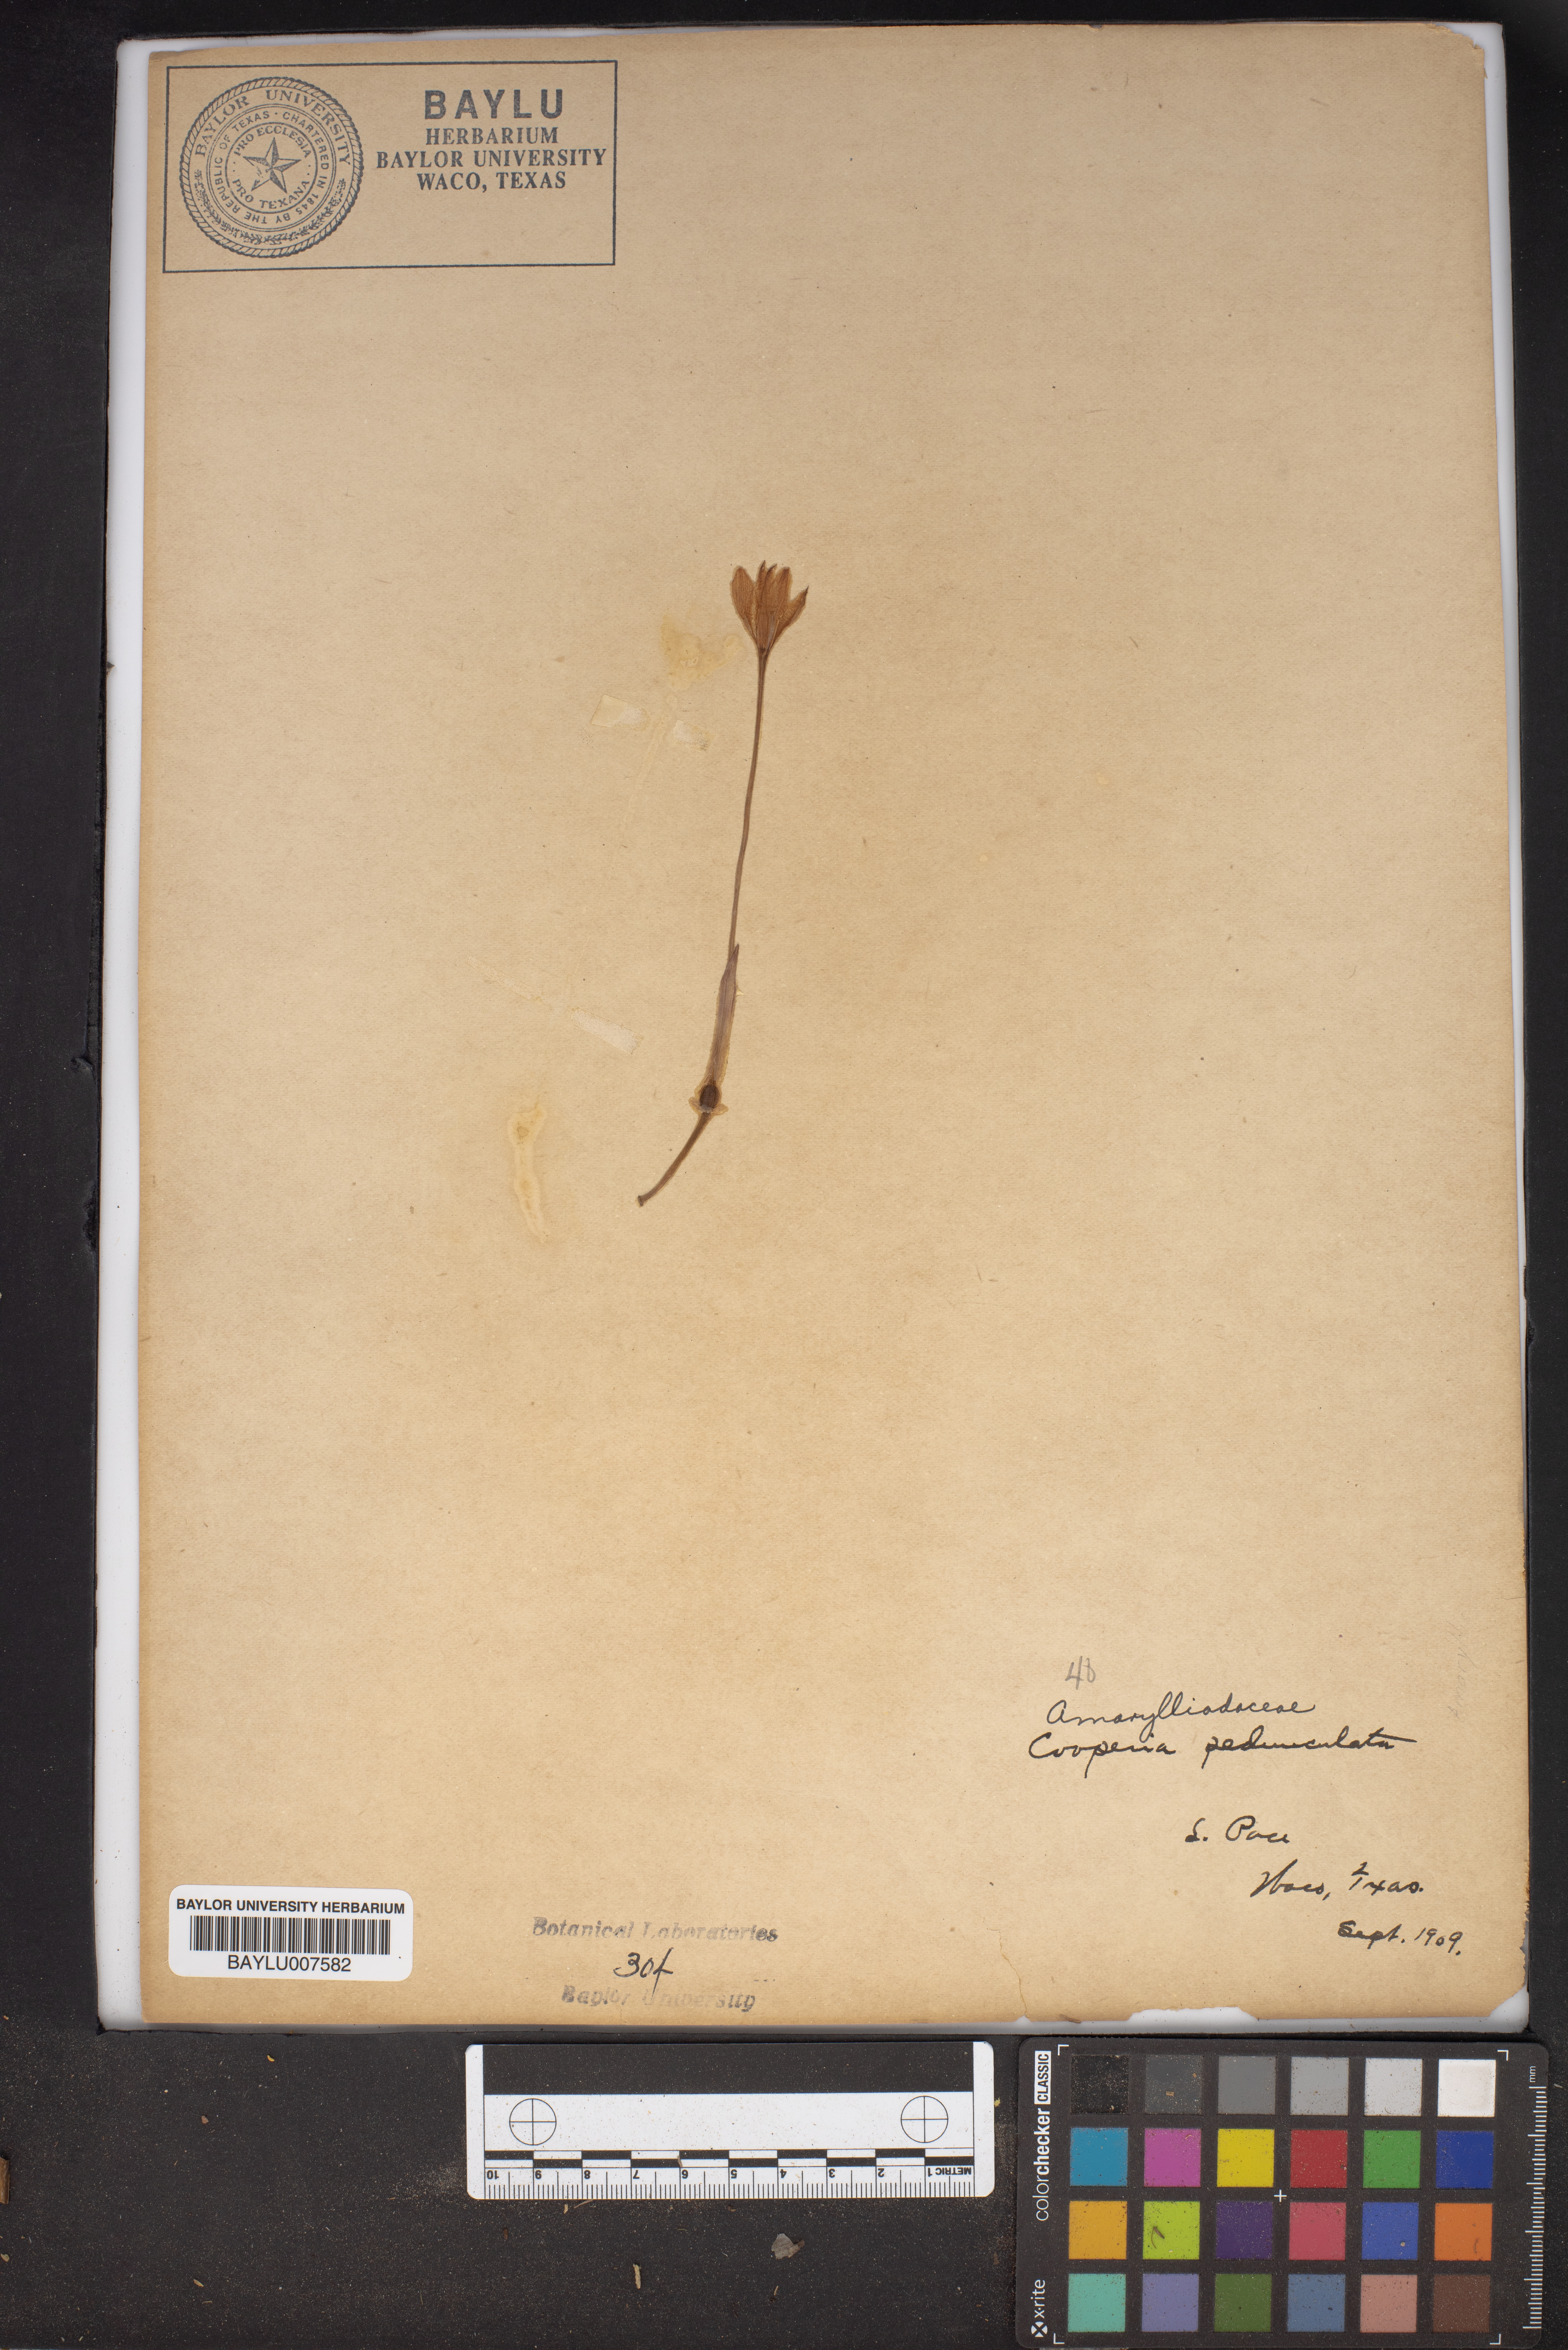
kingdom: Plantae
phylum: Tracheophyta
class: Liliopsida
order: Asparagales
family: Amaryllidaceae
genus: Zephyranthes
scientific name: Zephyranthes drummondii
